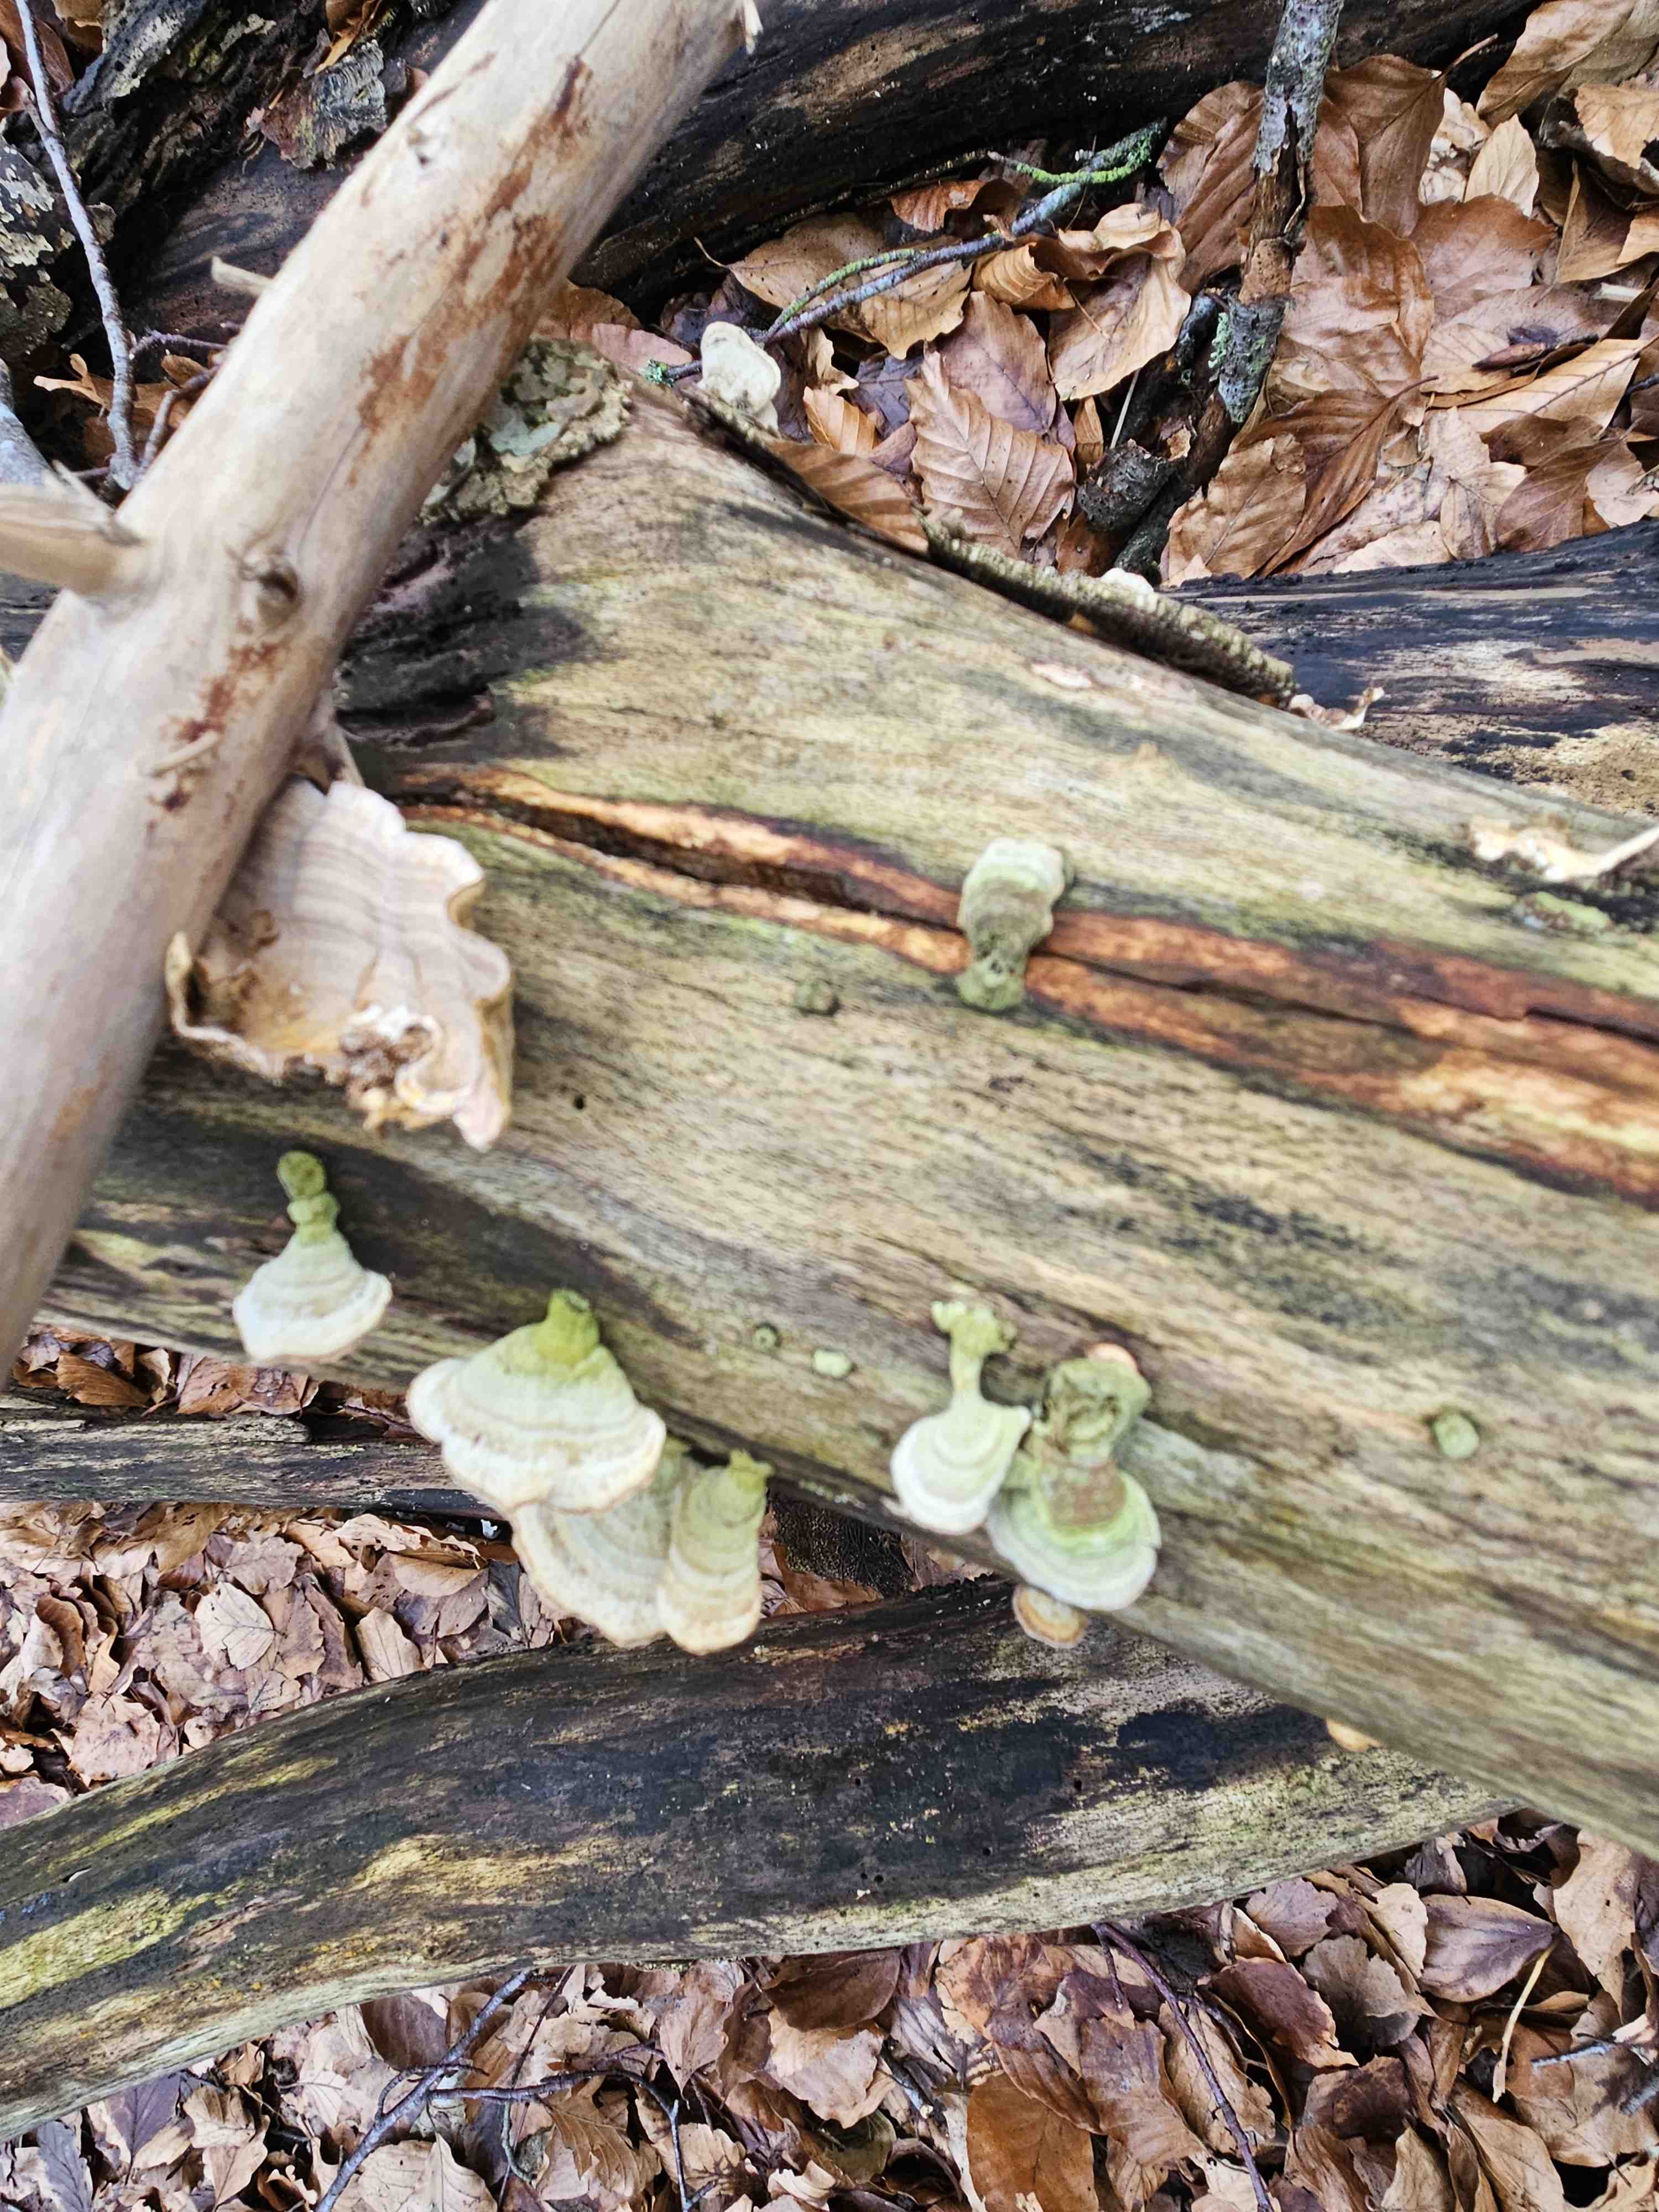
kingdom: Fungi
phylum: Basidiomycota
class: Agaricomycetes
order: Russulales
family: Stereaceae
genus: Stereum
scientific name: Stereum subtomentosum
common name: smuk lædersvamp
